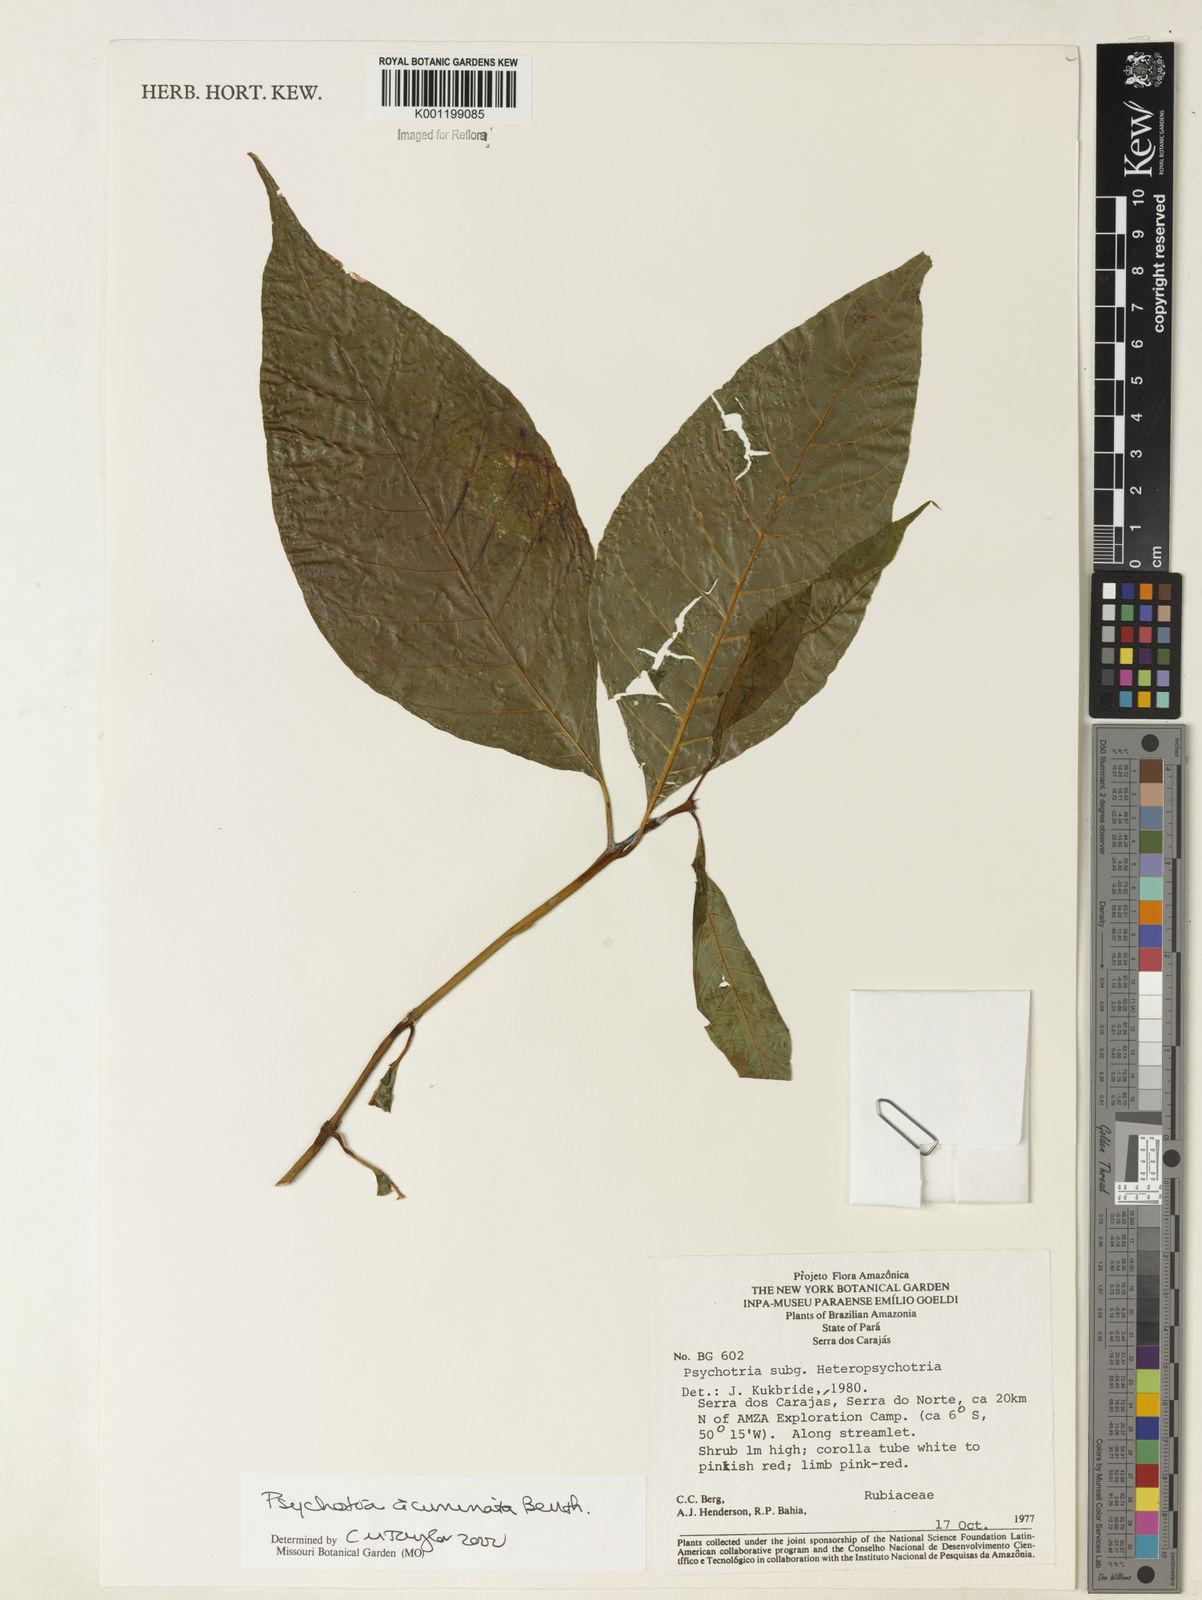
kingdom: Plantae
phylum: Tracheophyta
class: Magnoliopsida
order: Gentianales
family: Rubiaceae
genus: Palicourea
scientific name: Palicourea acuminata
